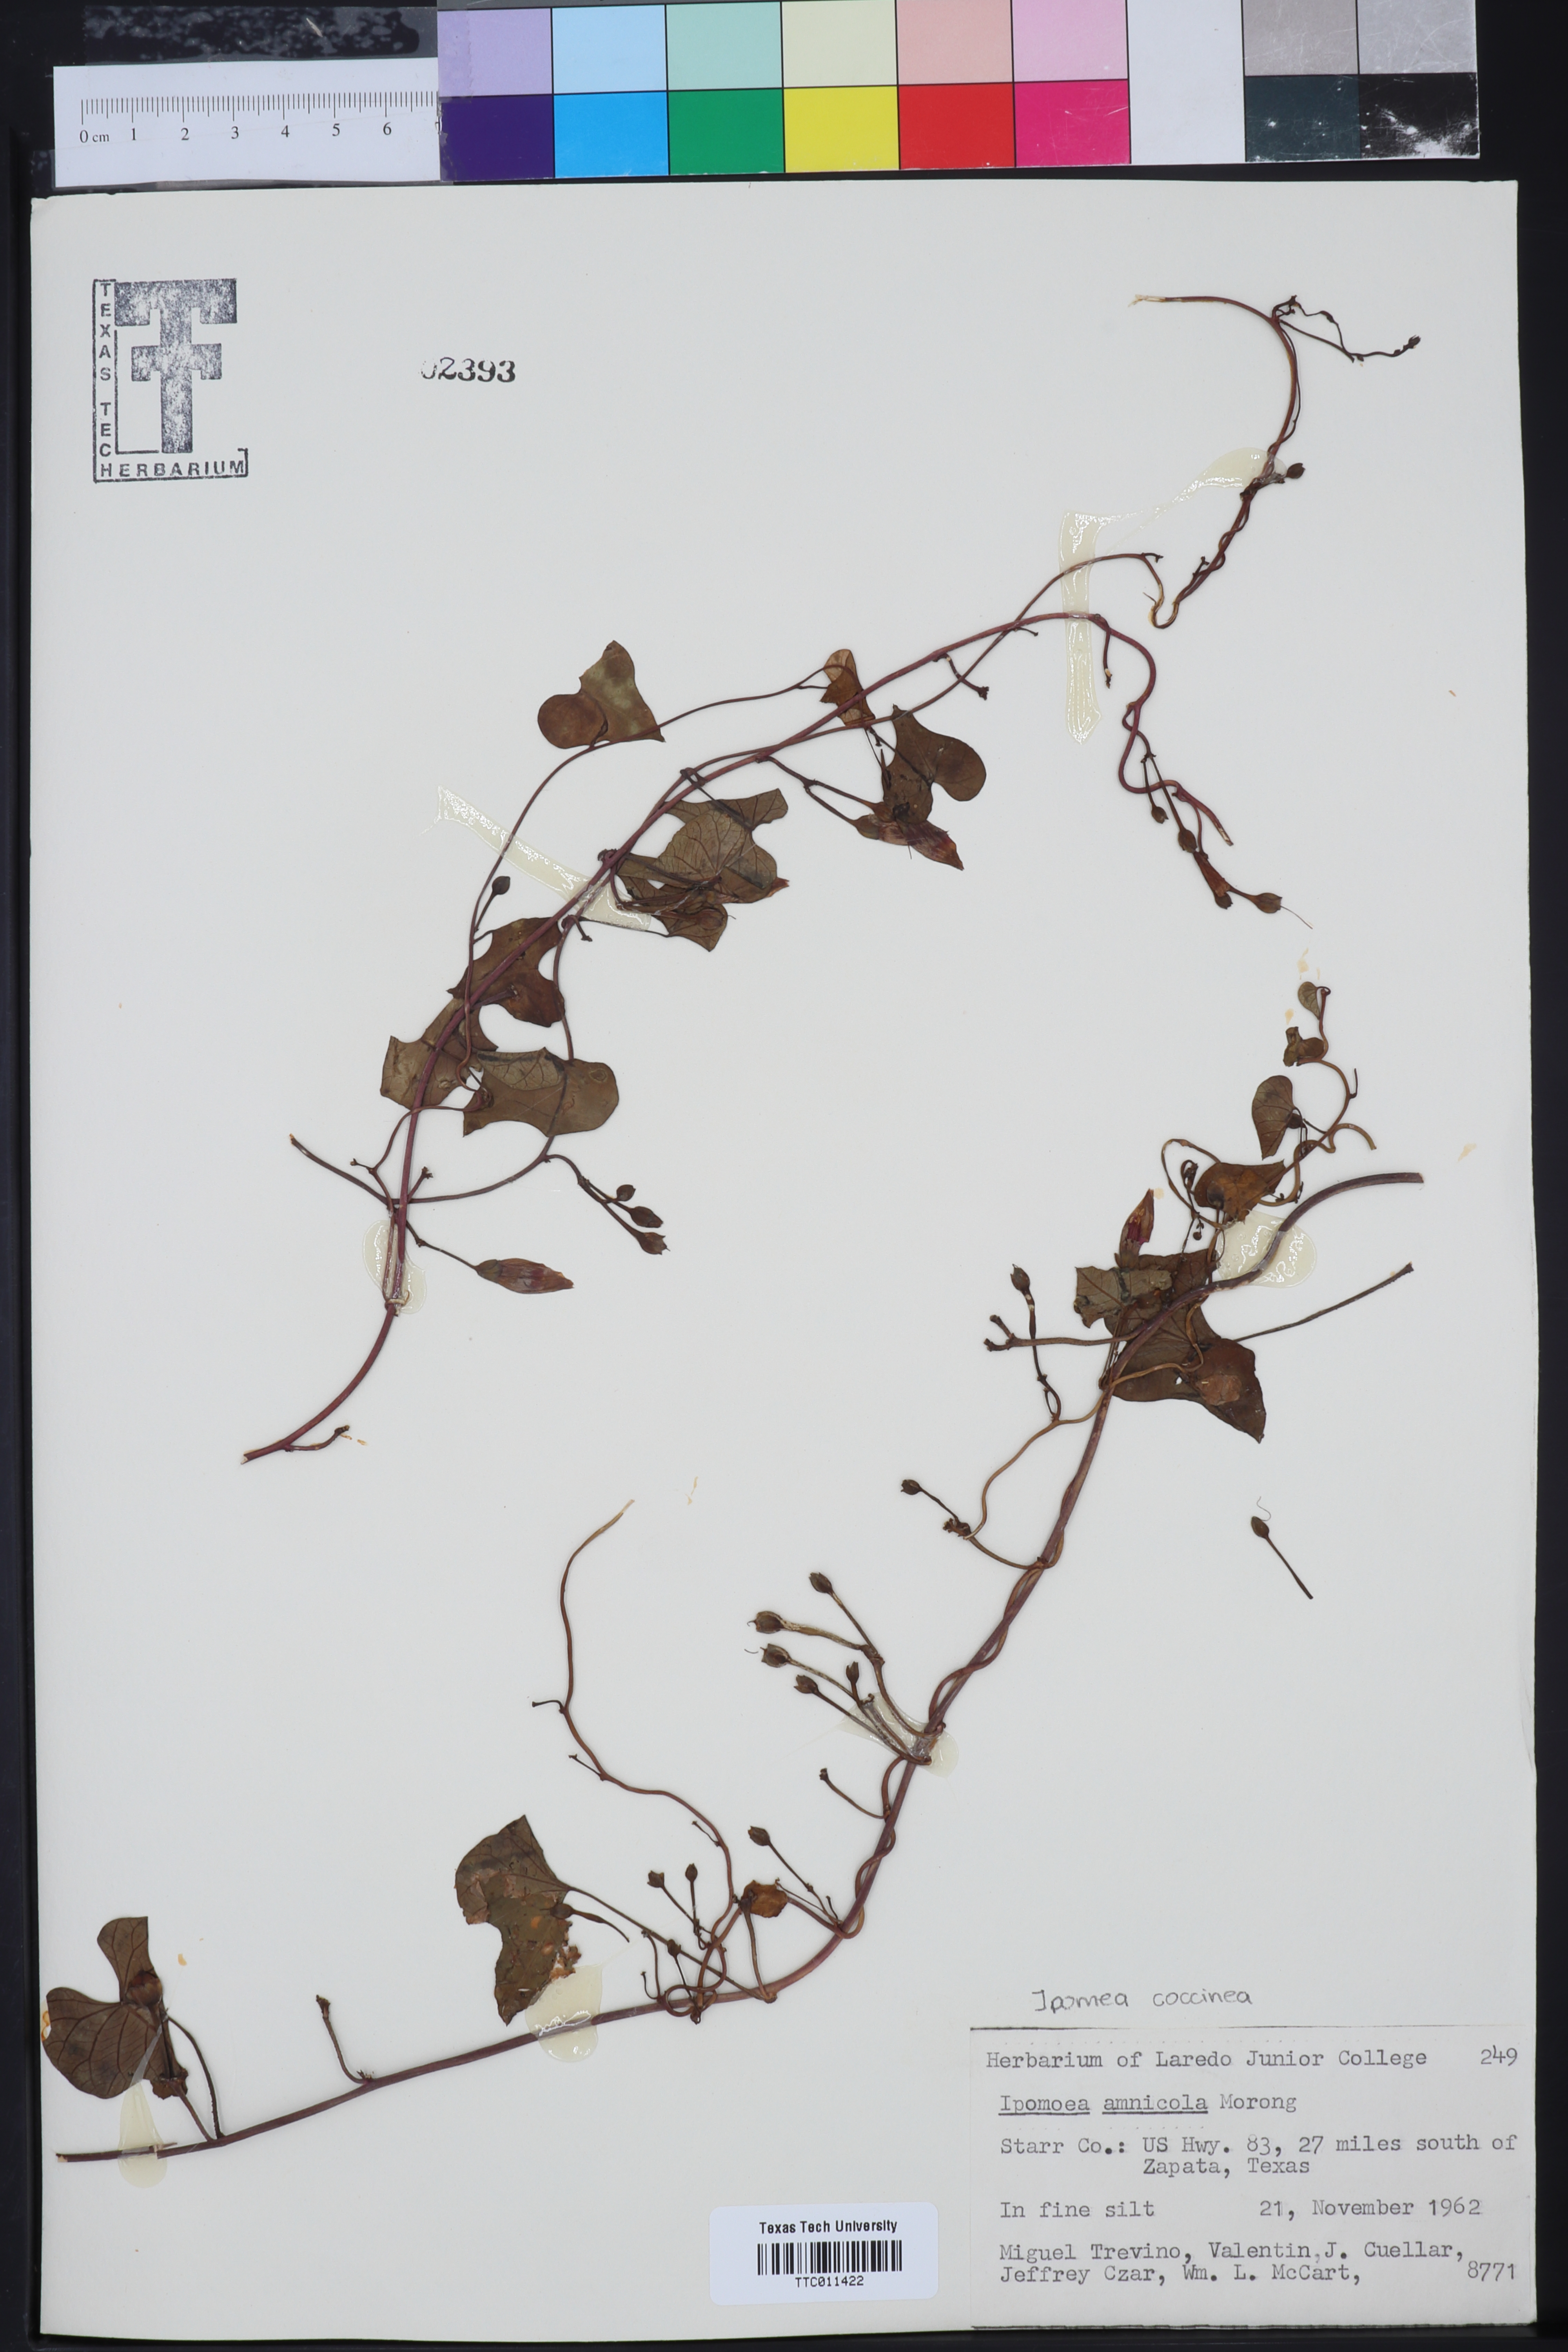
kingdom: Plantae
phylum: Tracheophyta
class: Magnoliopsida
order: Solanales
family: Convolvulaceae
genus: Ipomoea
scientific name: Ipomoea amnicola
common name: Redcenter morning-glory
